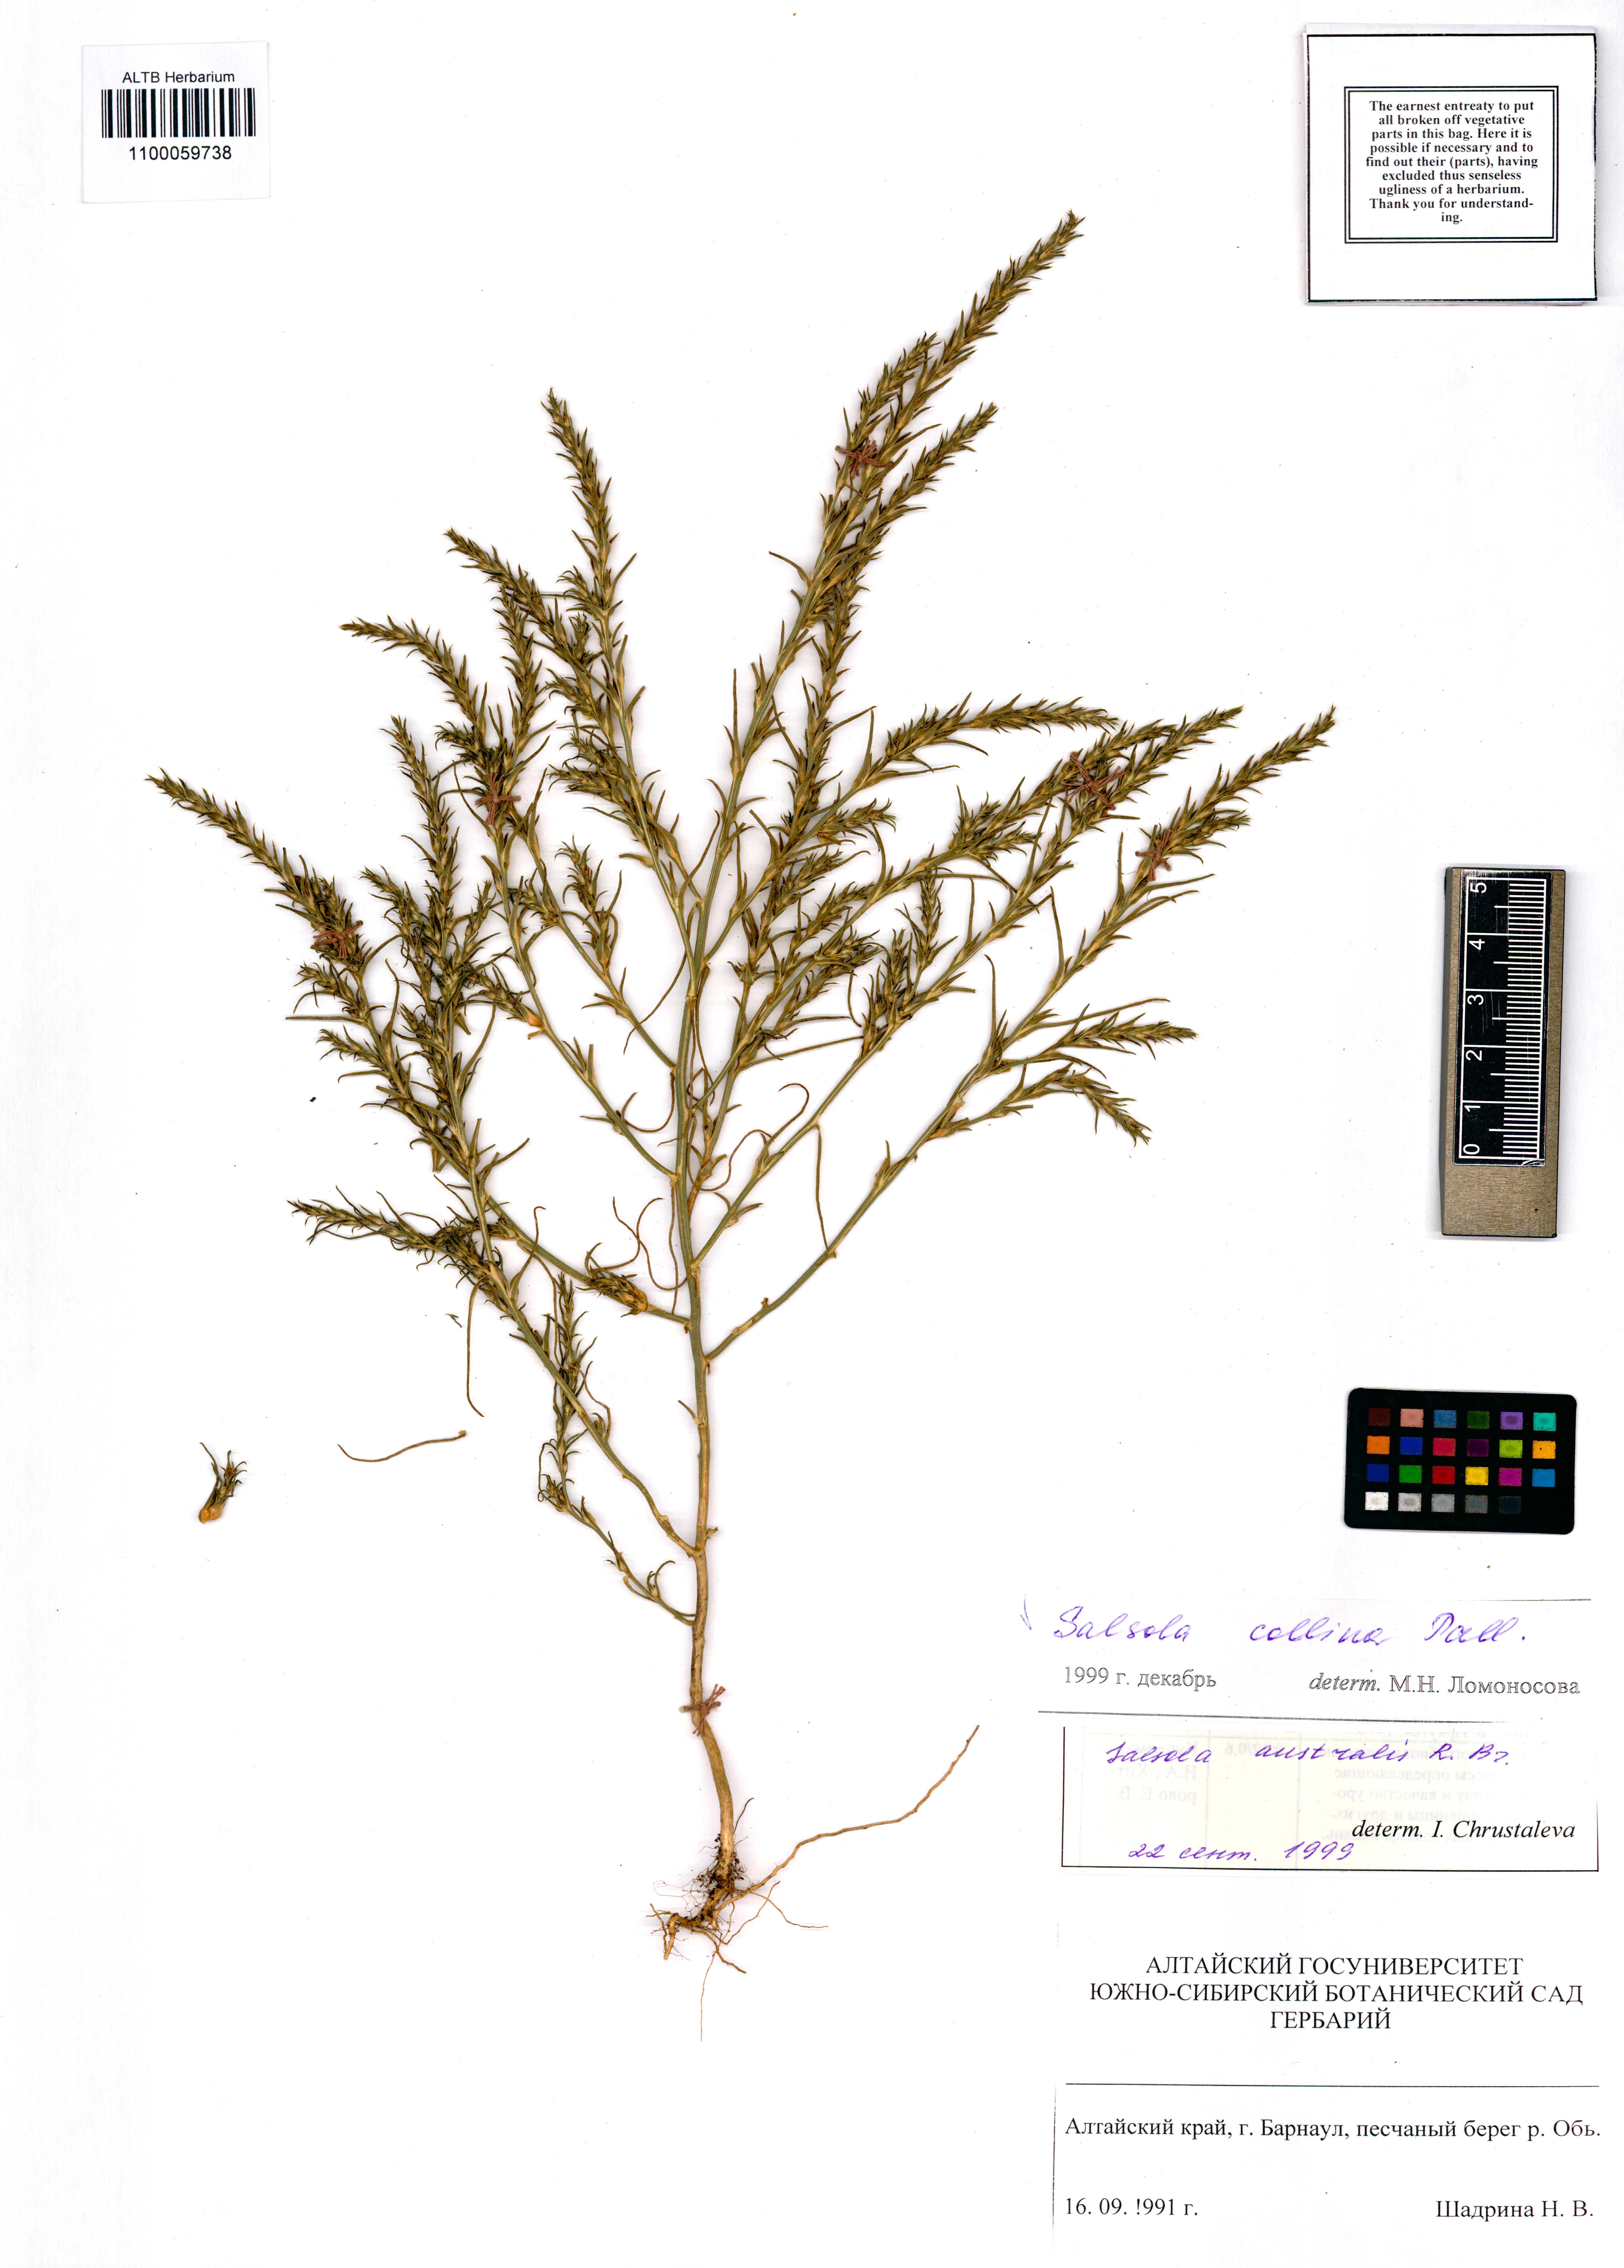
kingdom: Plantae
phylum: Tracheophyta
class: Magnoliopsida
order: Caryophyllales
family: Amaranthaceae
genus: Salsola
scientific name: Salsola collina
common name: Tumbleweed
